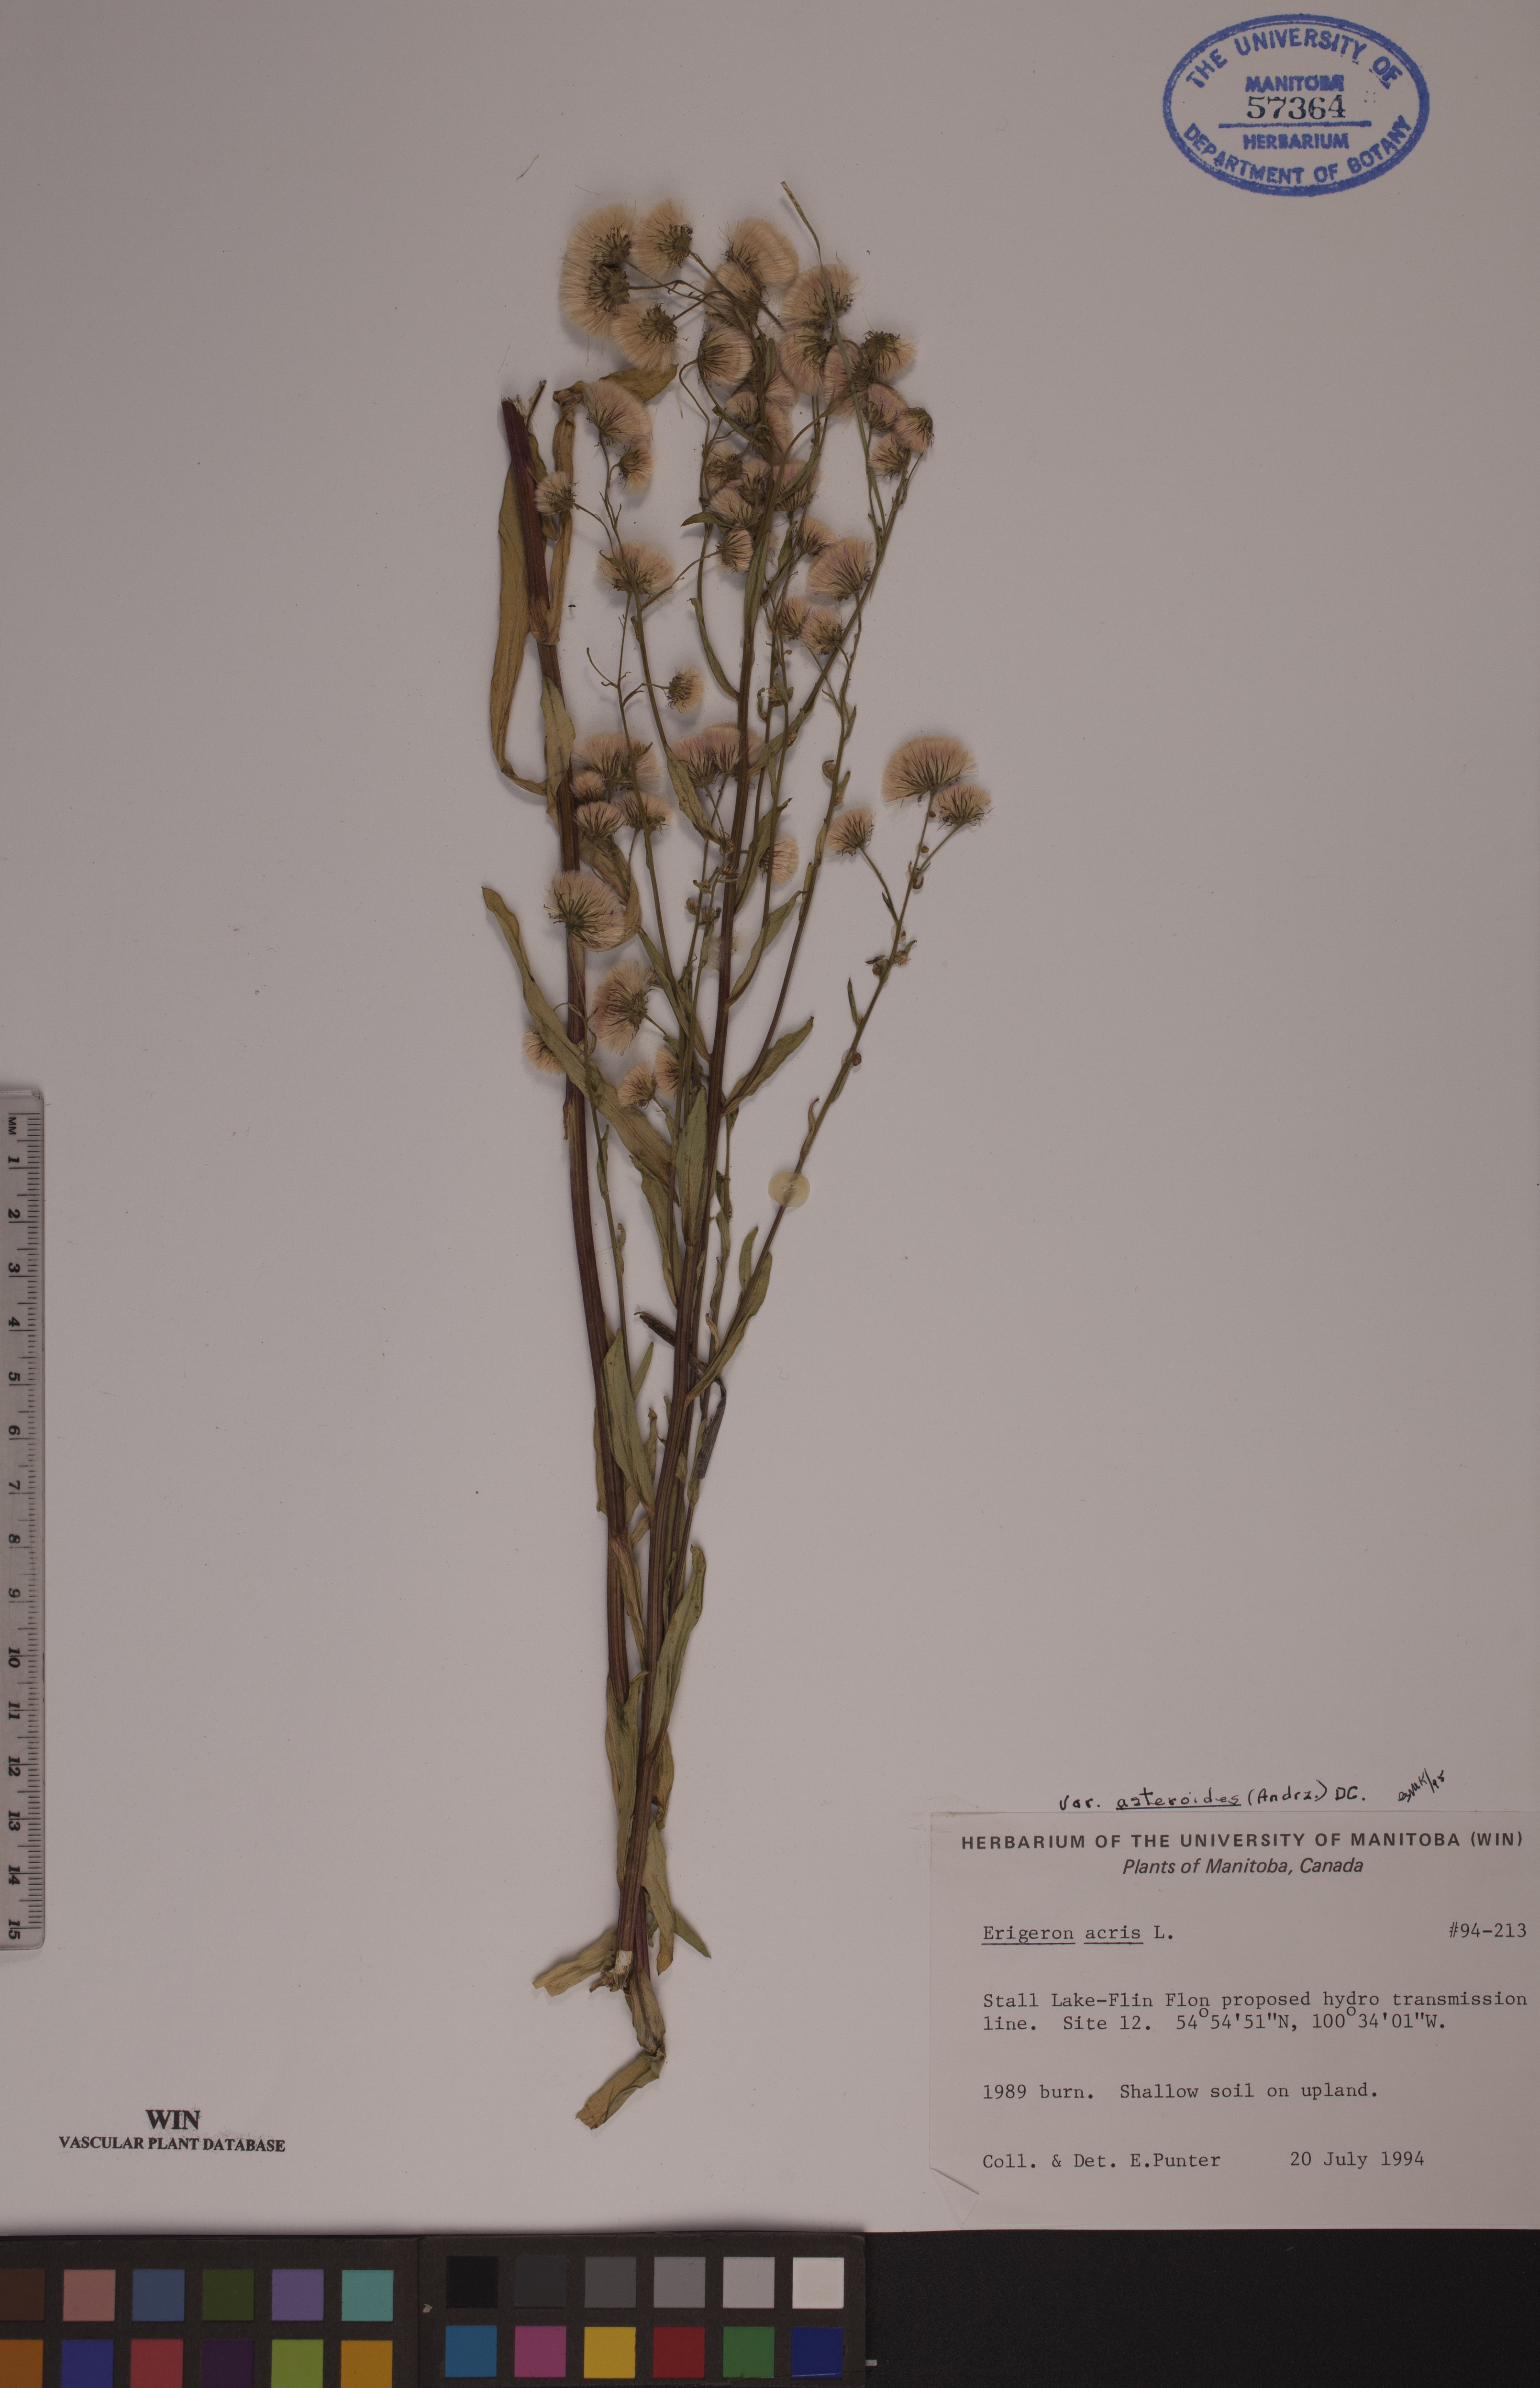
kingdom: Plantae
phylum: Tracheophyta
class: Magnoliopsida
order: Asterales
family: Asteraceae
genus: Erigeron
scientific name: Erigeron podolicus
